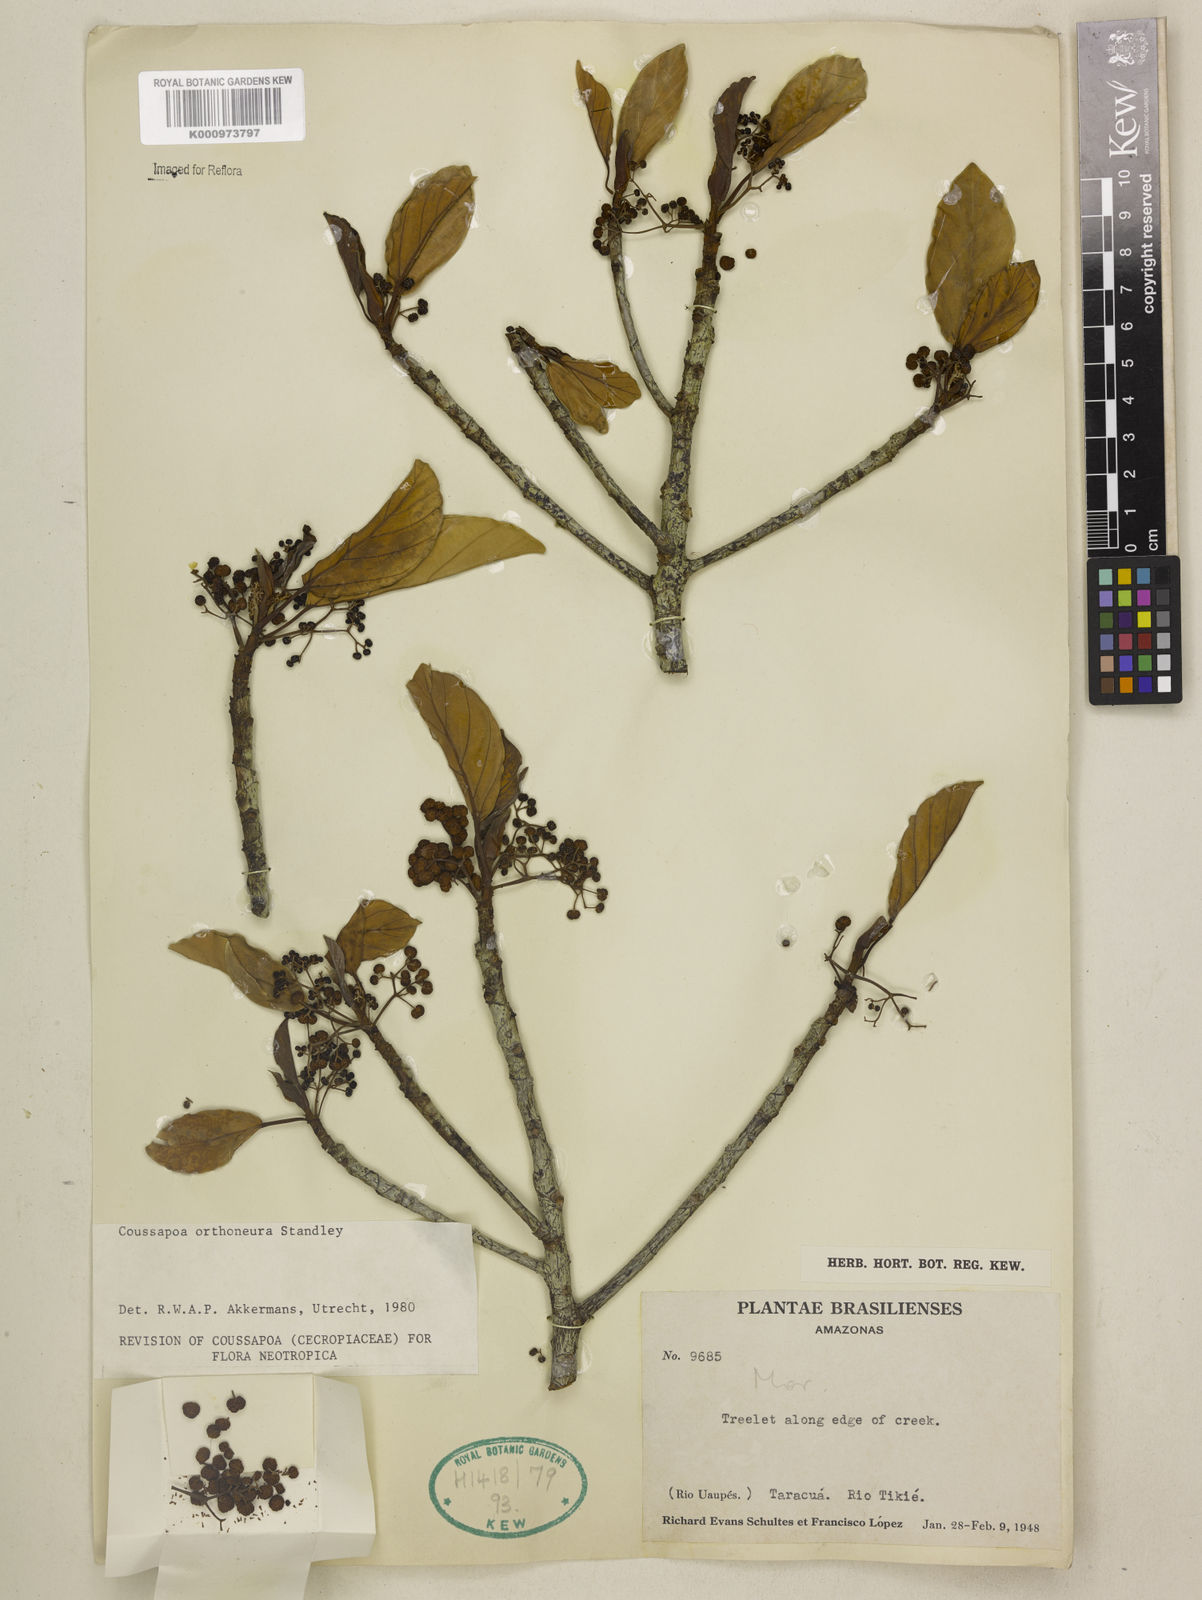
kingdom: Plantae
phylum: Tracheophyta
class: Magnoliopsida
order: Rosales
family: Urticaceae
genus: Coussapoa
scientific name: Coussapoa orthoneura
